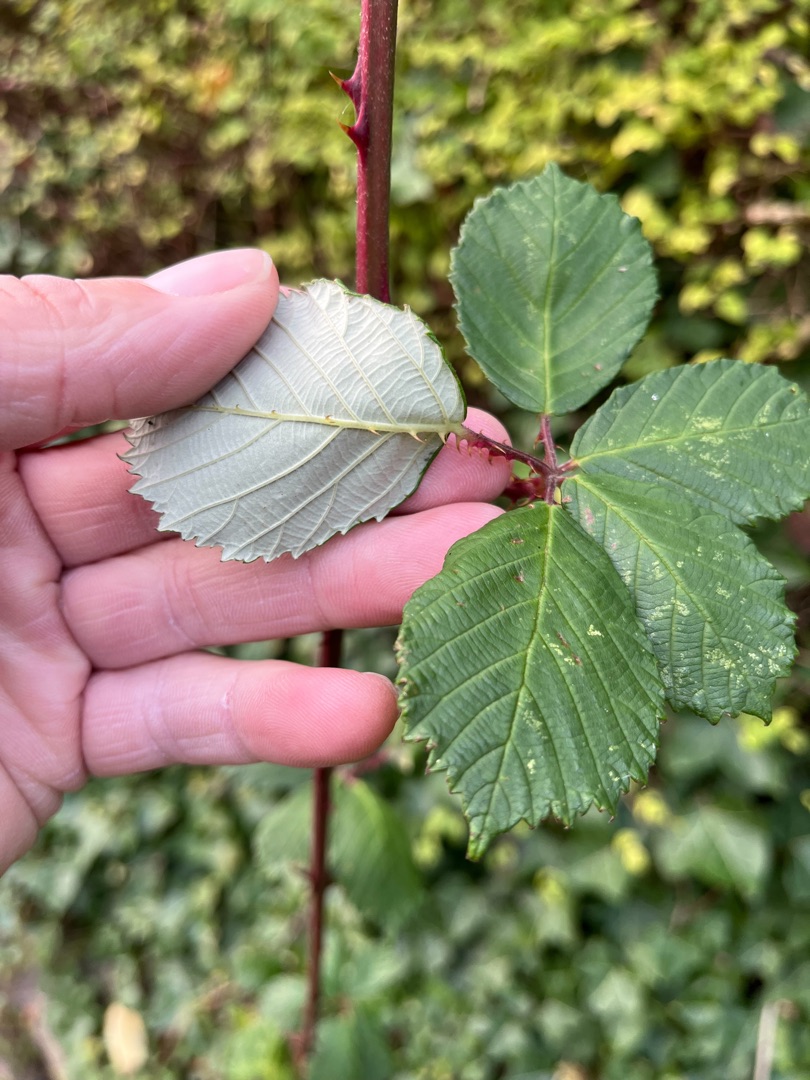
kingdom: Plantae
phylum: Tracheophyta
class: Magnoliopsida
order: Rosales
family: Rosaceae
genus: Rubus
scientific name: Rubus armeniacus
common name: Armensk brombær
